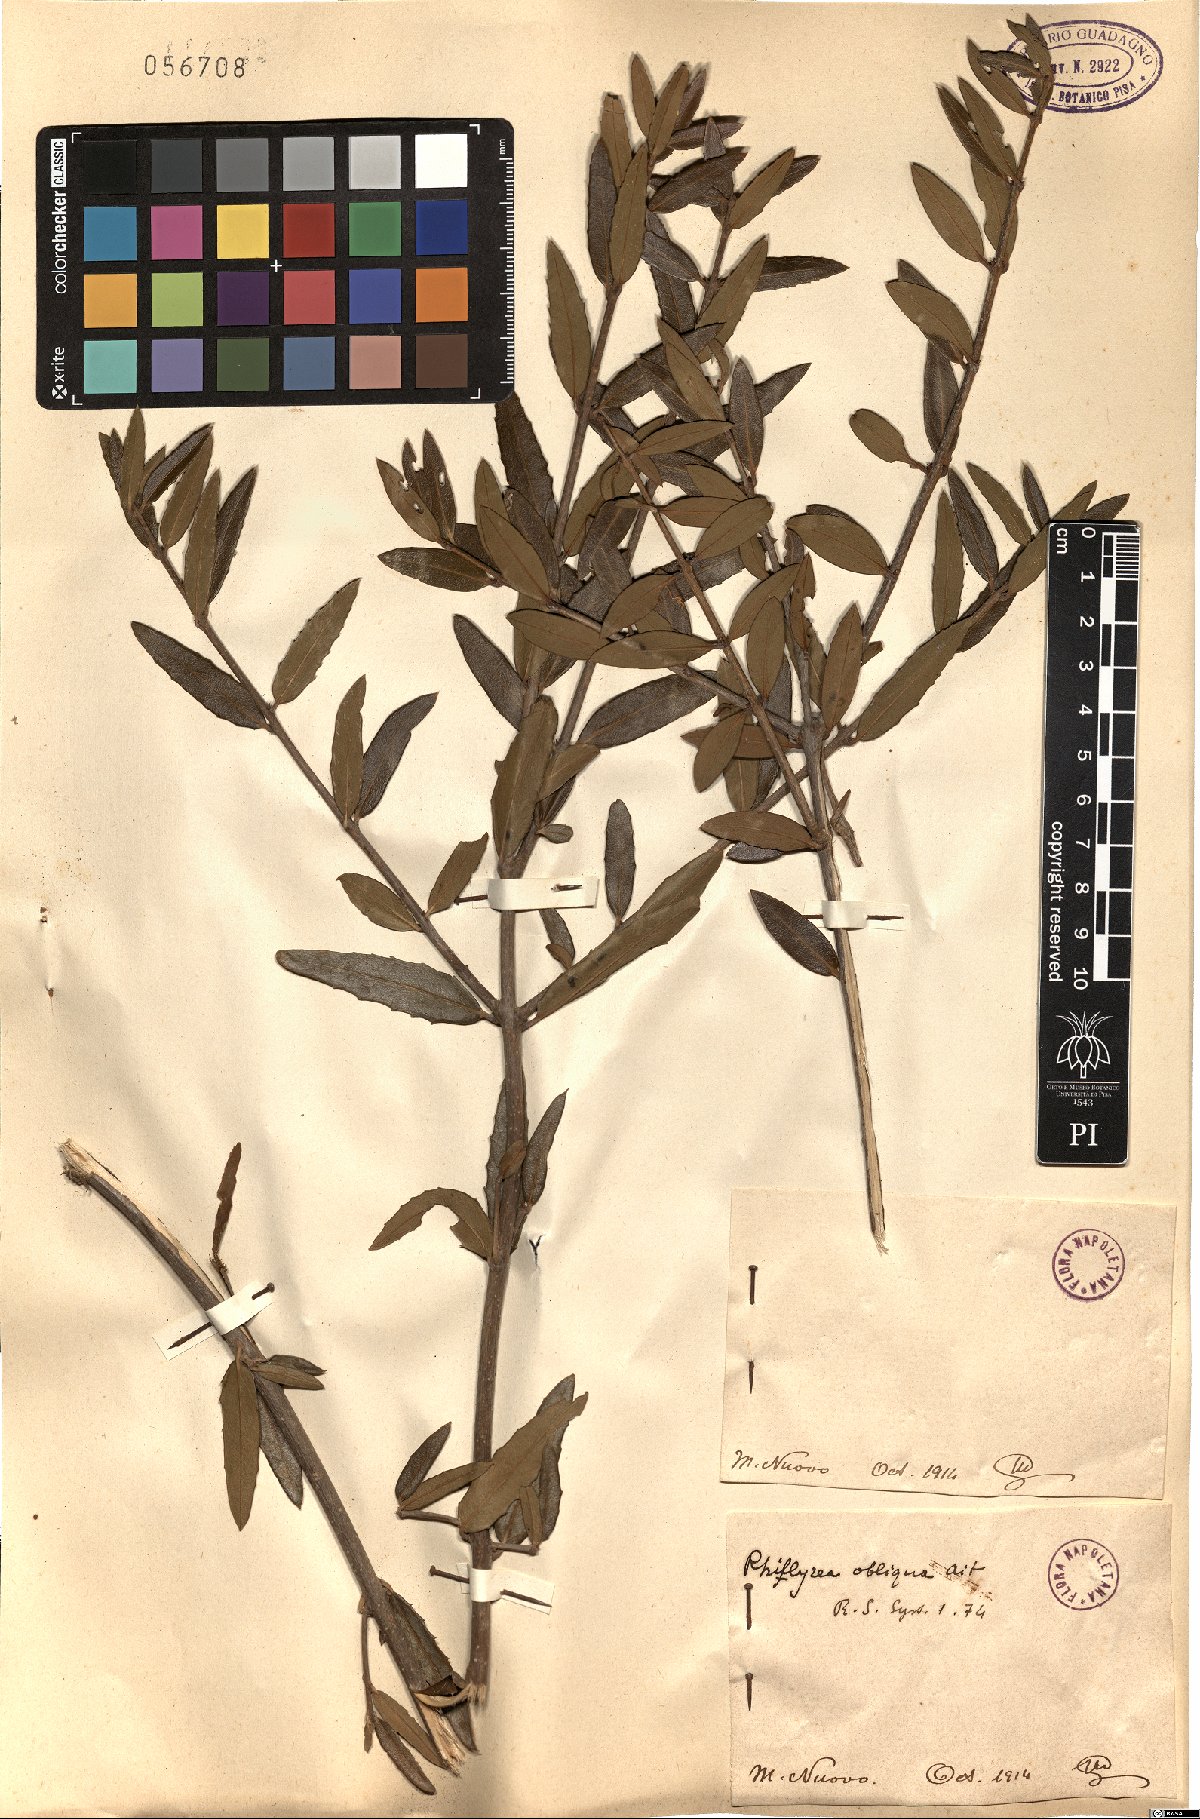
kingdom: Plantae
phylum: Tracheophyta
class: Magnoliopsida
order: Lamiales
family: Oleaceae
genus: Phillyrea
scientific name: Phillyrea latifolia
